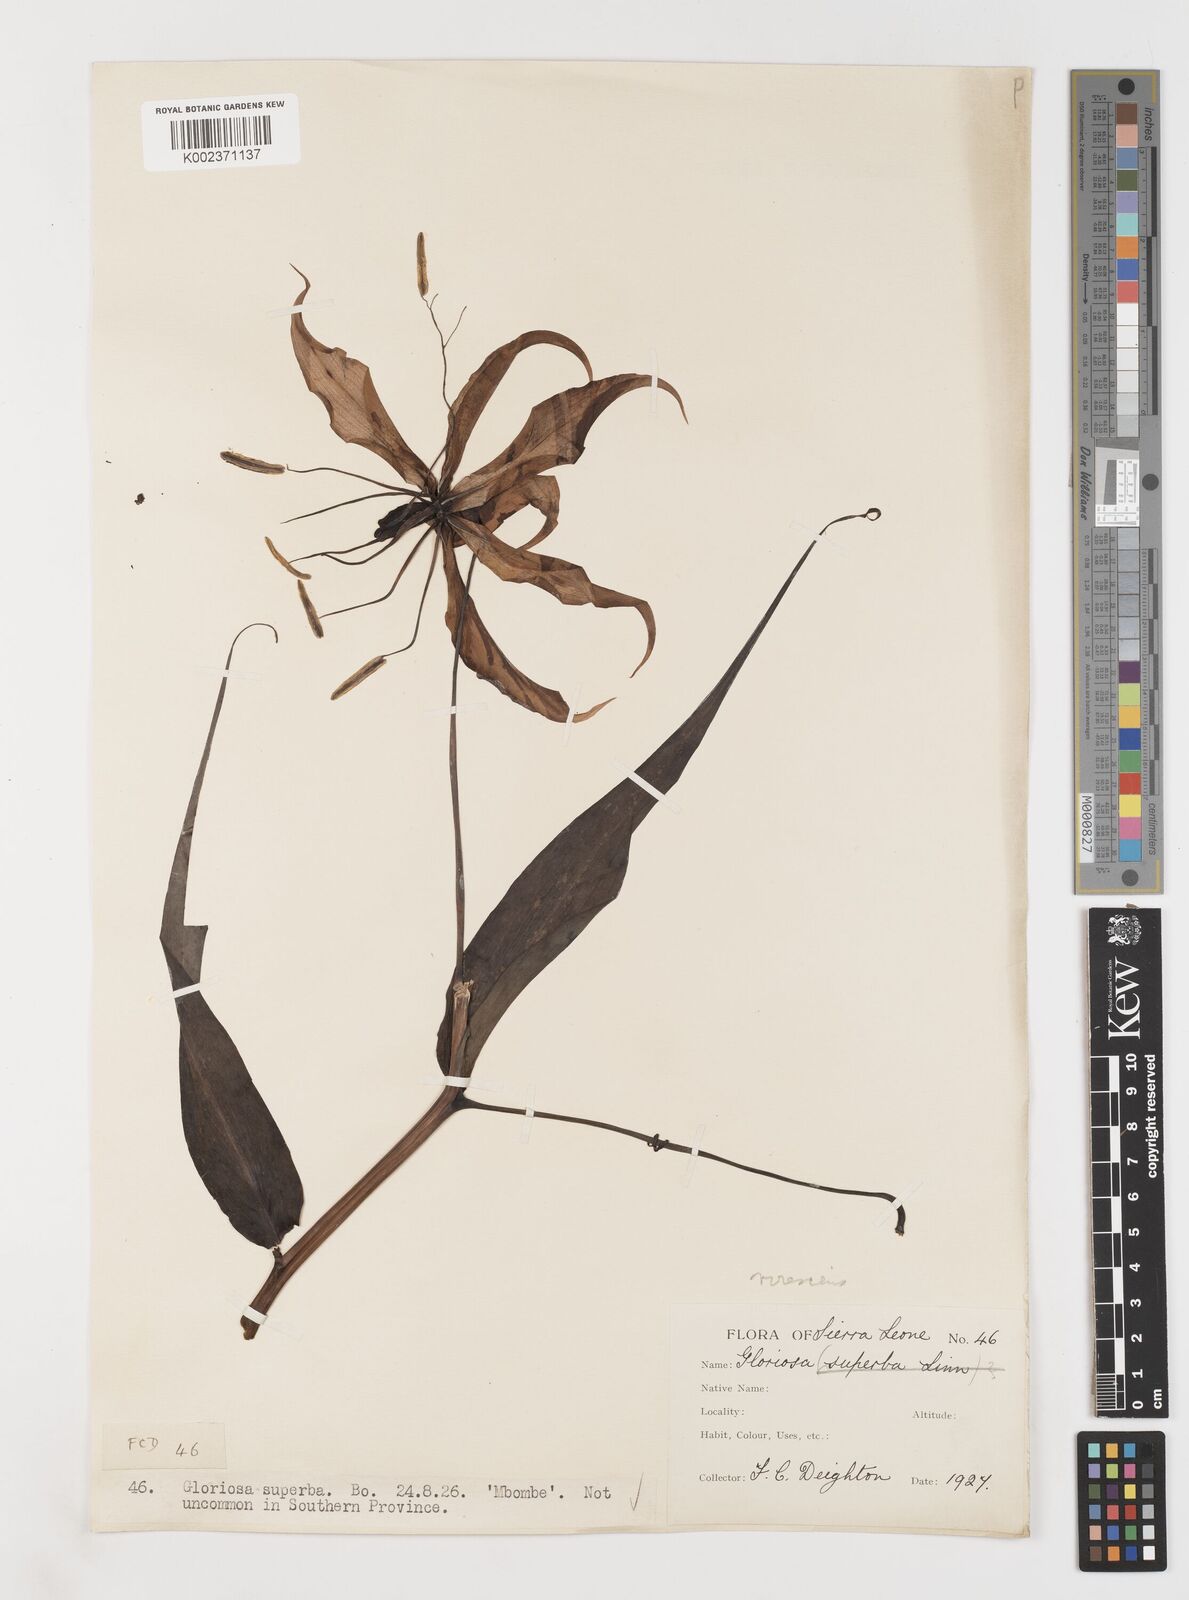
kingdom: Plantae
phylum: Tracheophyta
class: Liliopsida
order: Liliales
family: Colchicaceae
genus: Gloriosa
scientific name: Gloriosa simplex
